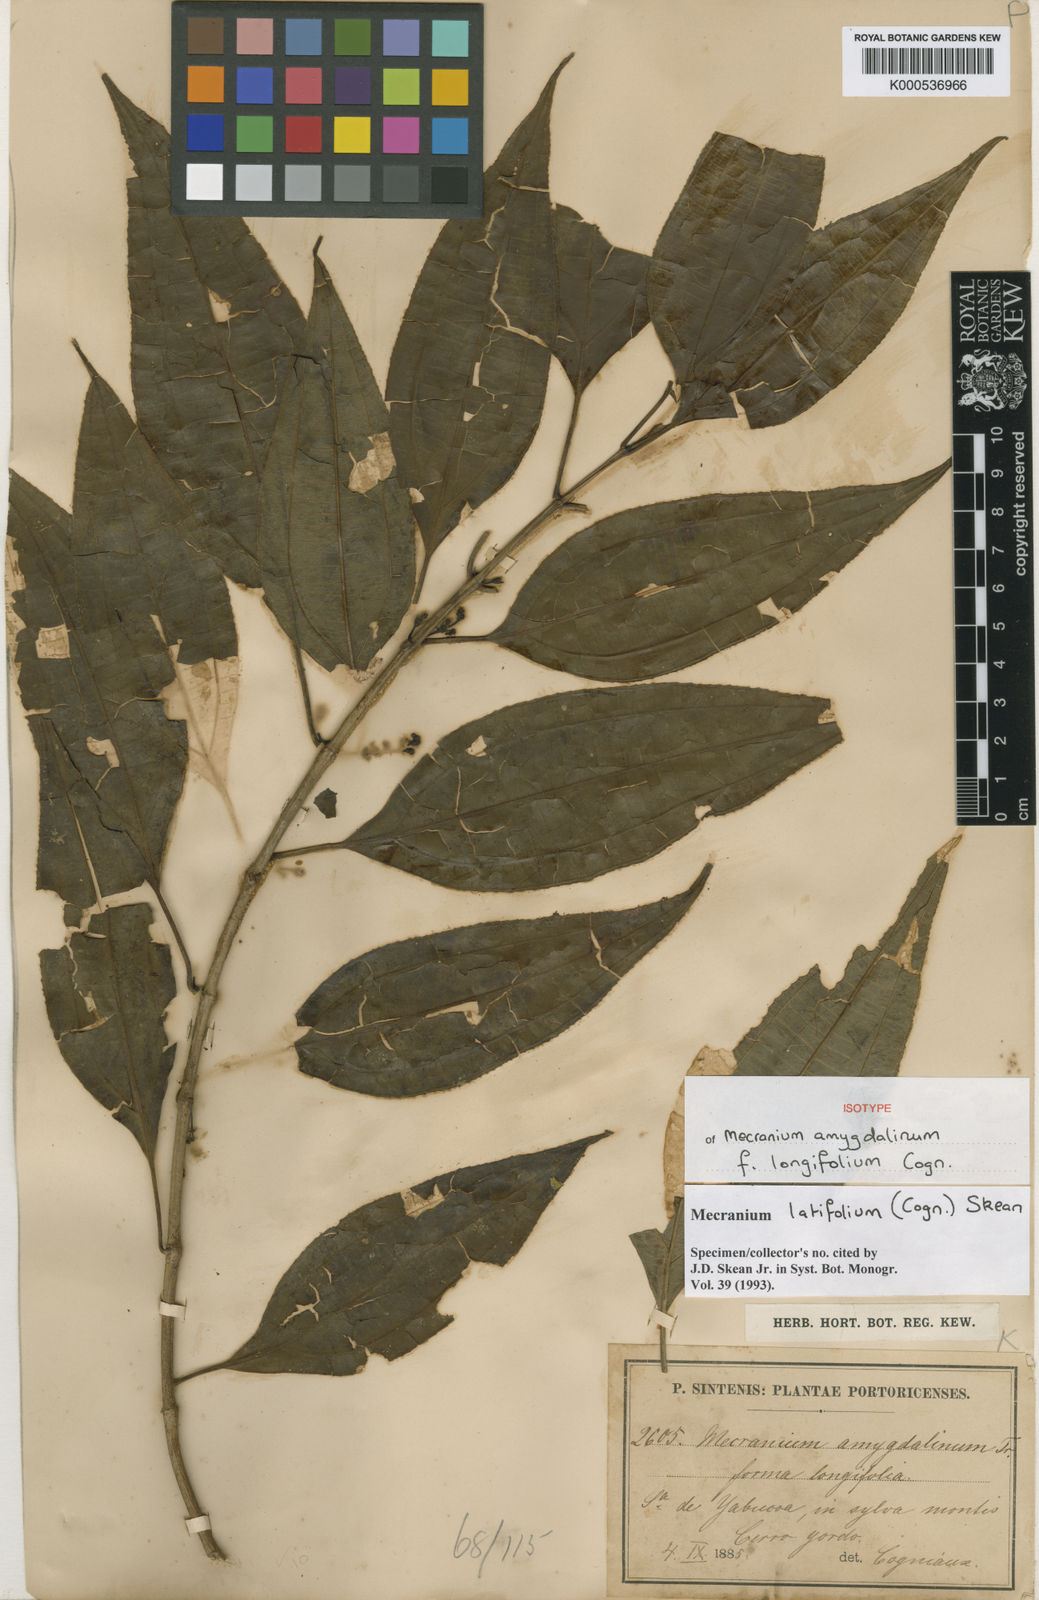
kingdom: Plantae
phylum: Tracheophyta
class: Magnoliopsida
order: Myrtales
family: Melastomataceae
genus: Miconia
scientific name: Miconia borinquensis
